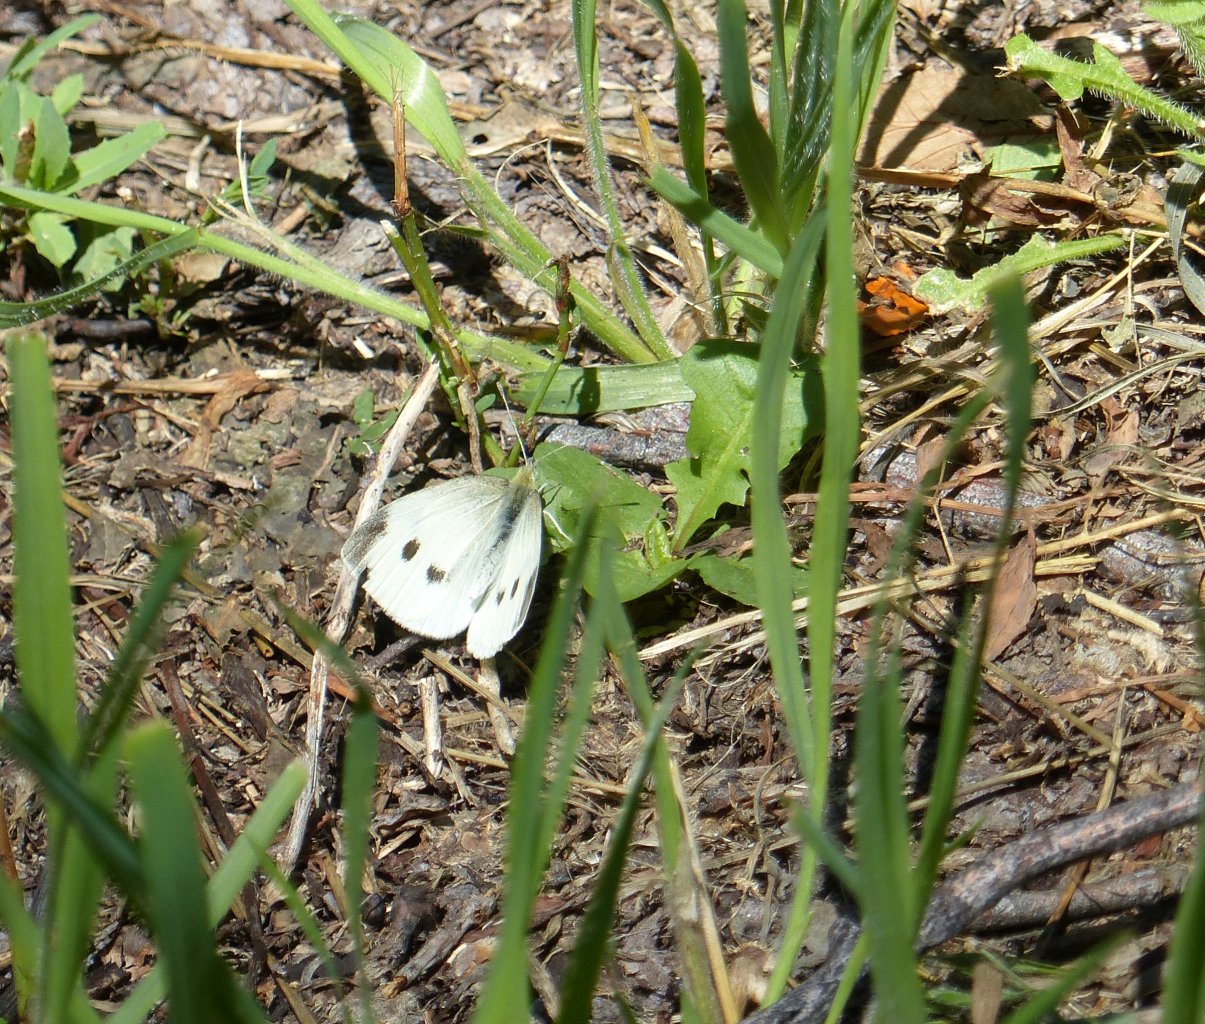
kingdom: Animalia
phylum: Arthropoda
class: Insecta
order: Lepidoptera
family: Pieridae
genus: Pieris
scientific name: Pieris rapae
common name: Cabbage White
